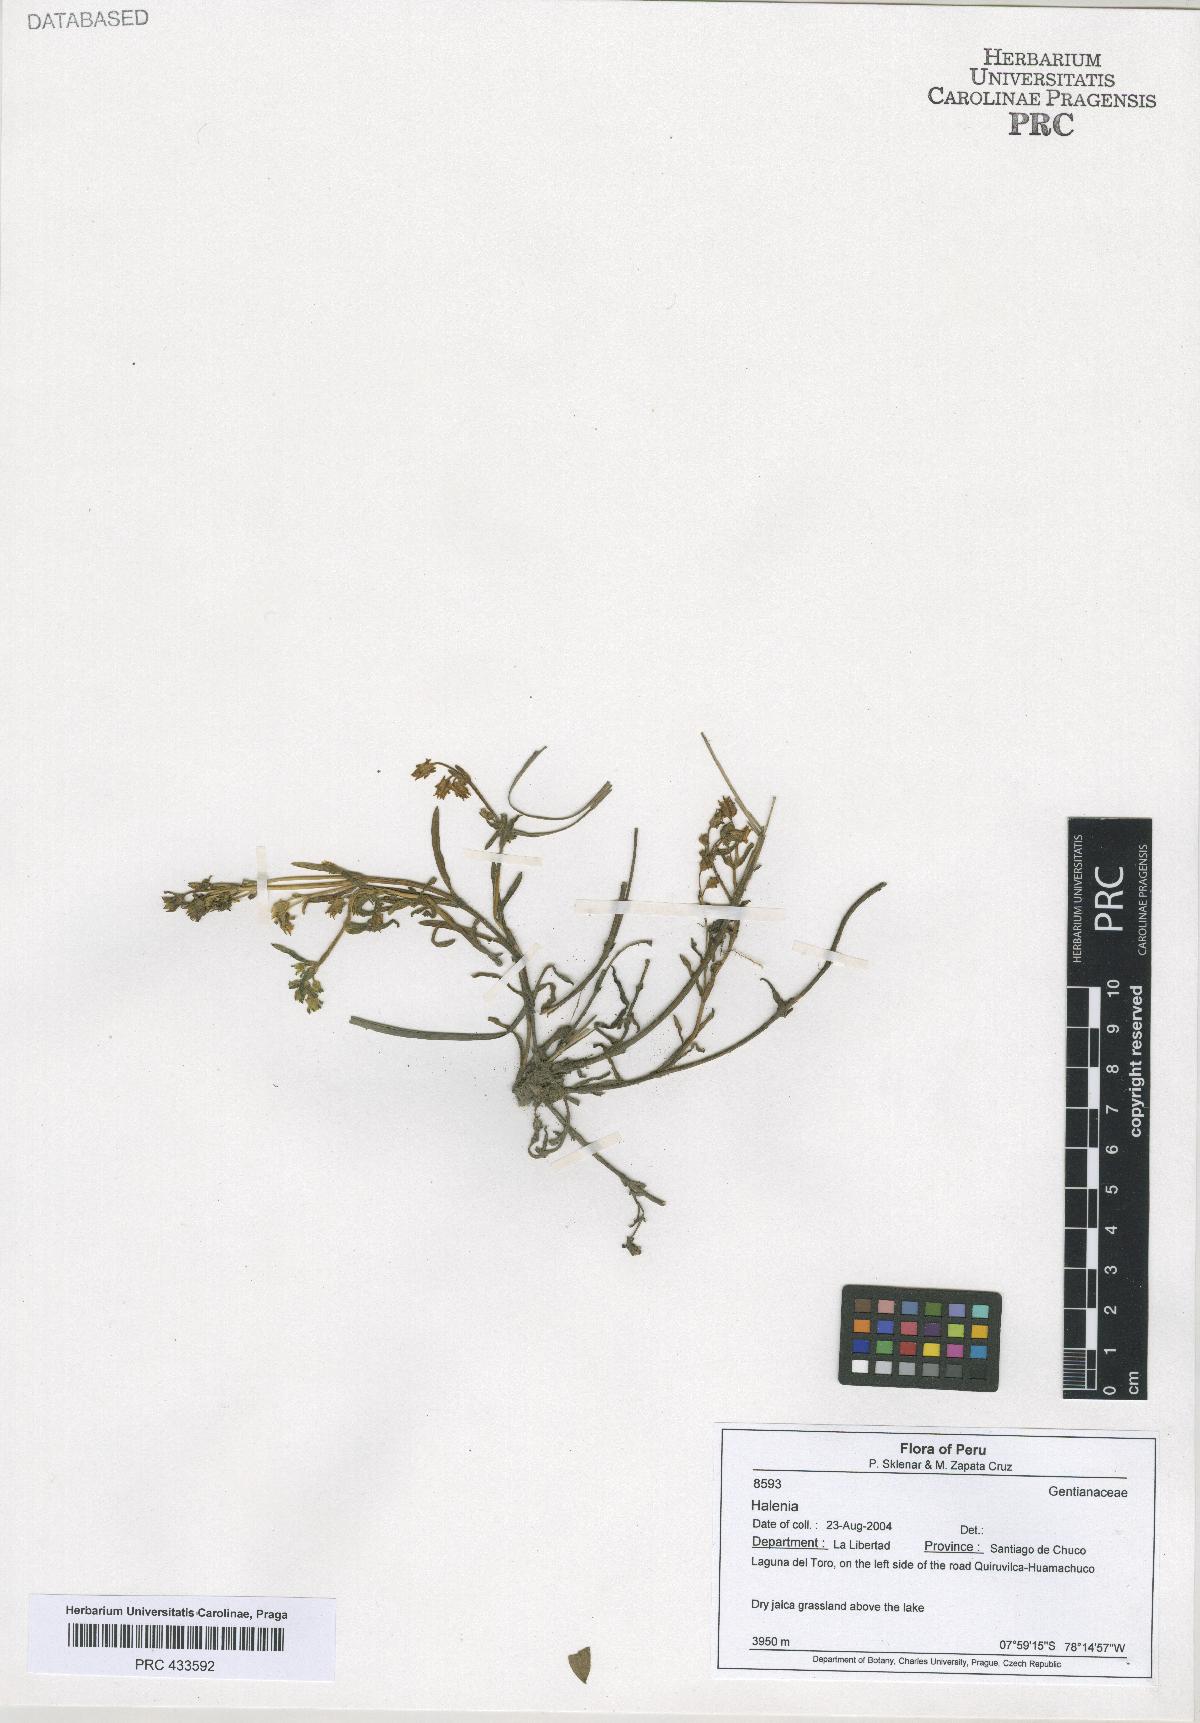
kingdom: Plantae
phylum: Tracheophyta
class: Magnoliopsida
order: Gentianales
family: Gentianaceae
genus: Halenia
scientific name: Halenia
